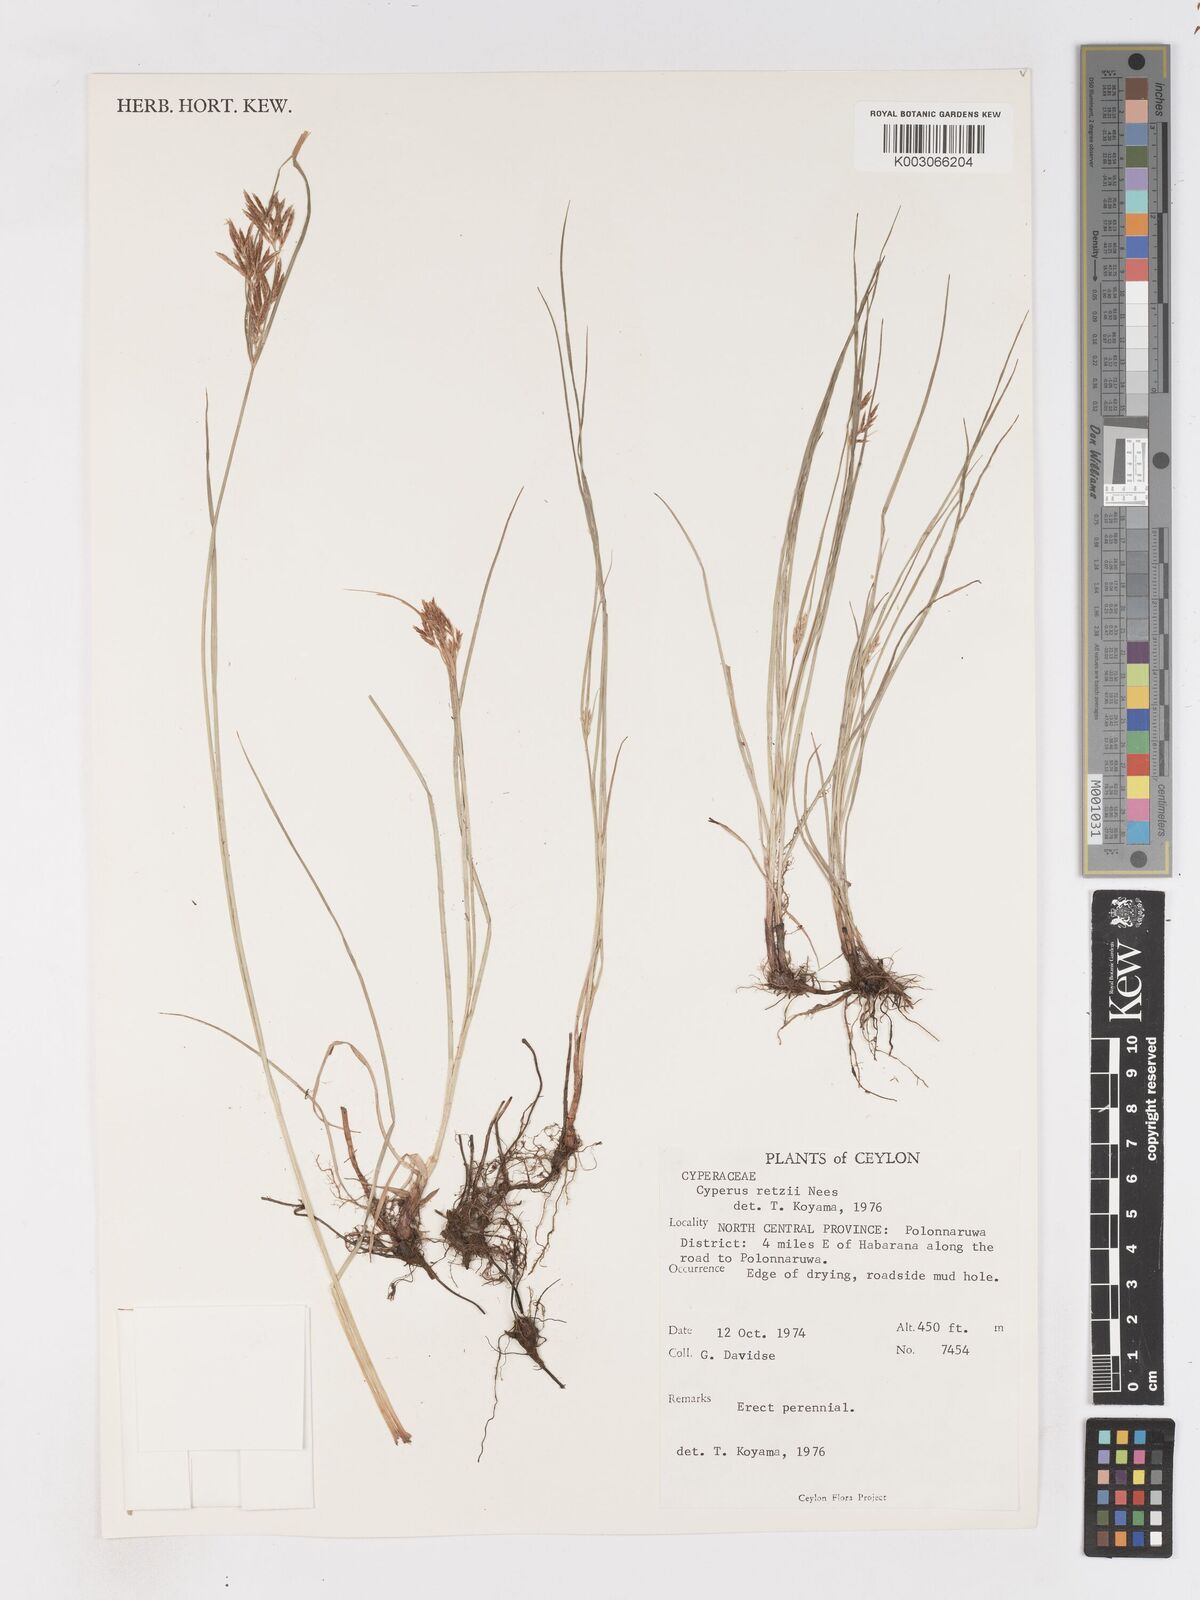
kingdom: Plantae
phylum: Tracheophyta
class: Liliopsida
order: Poales
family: Cyperaceae
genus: Cyperus
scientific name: Cyperus bifax
